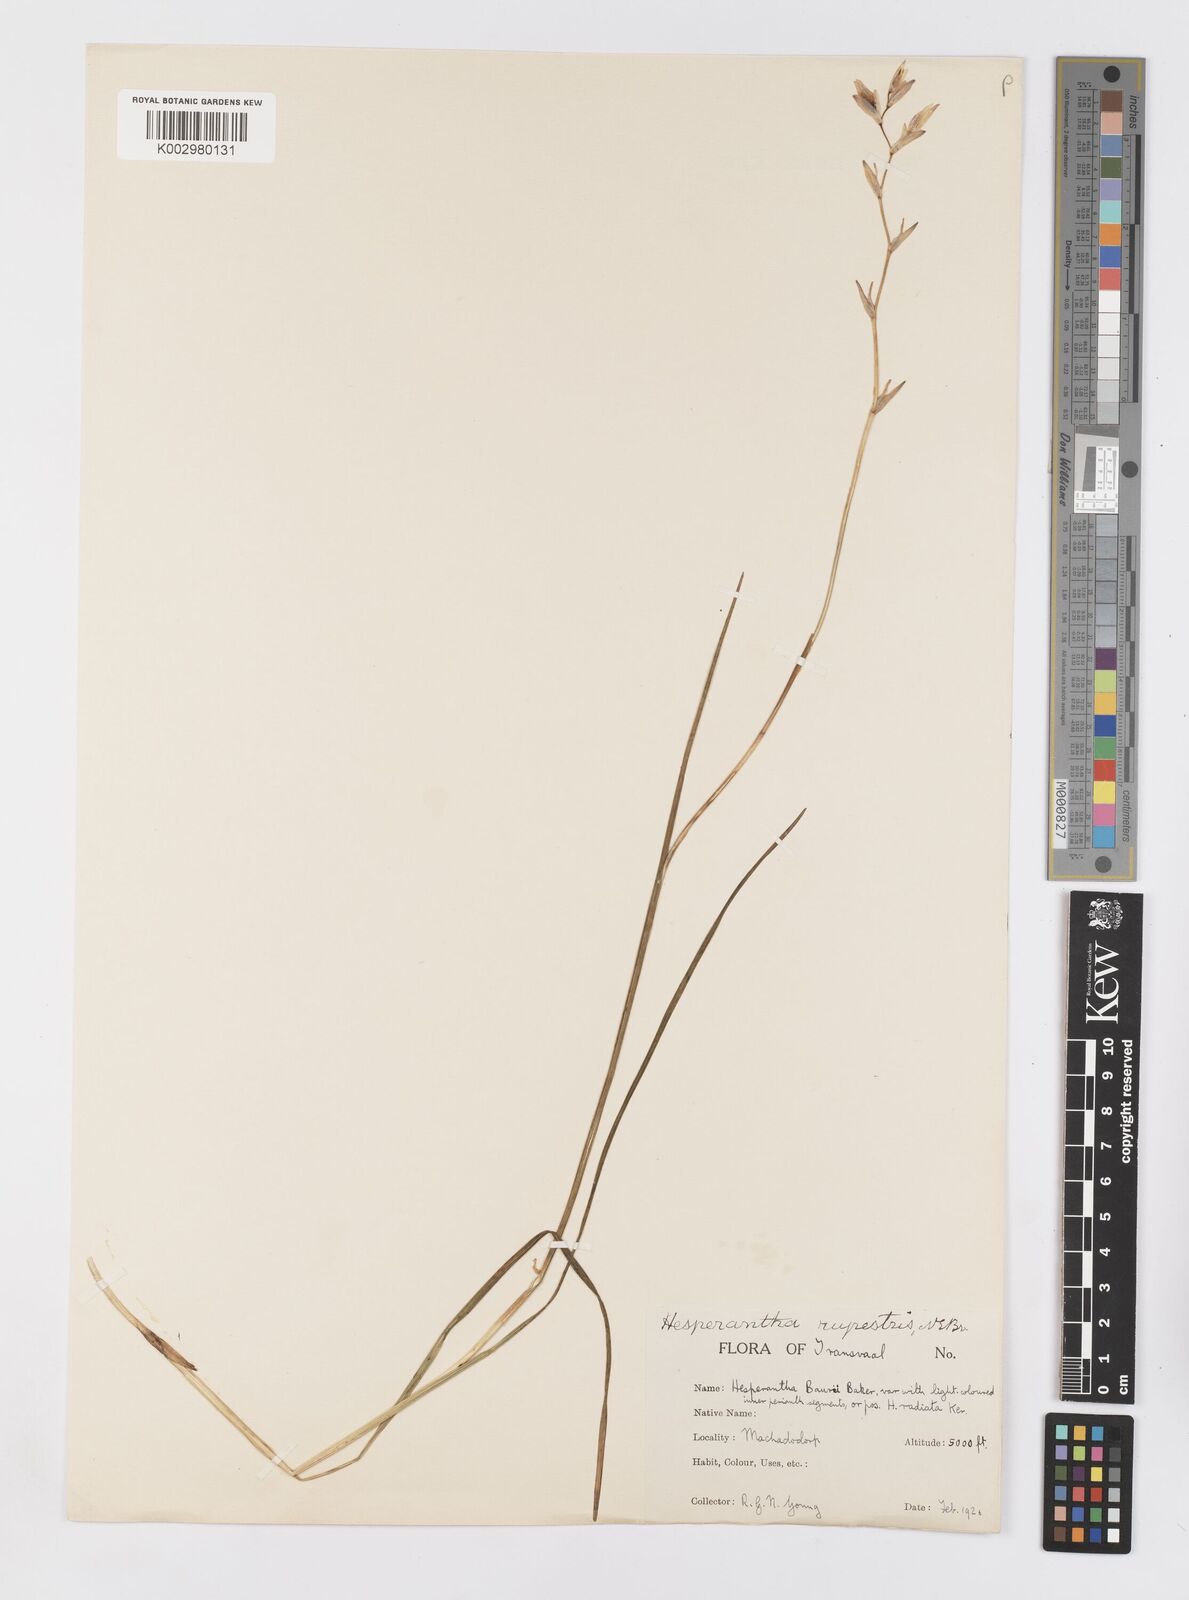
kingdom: Plantae
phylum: Tracheophyta
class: Liliopsida
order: Asparagales
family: Iridaceae
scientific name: Iridaceae
